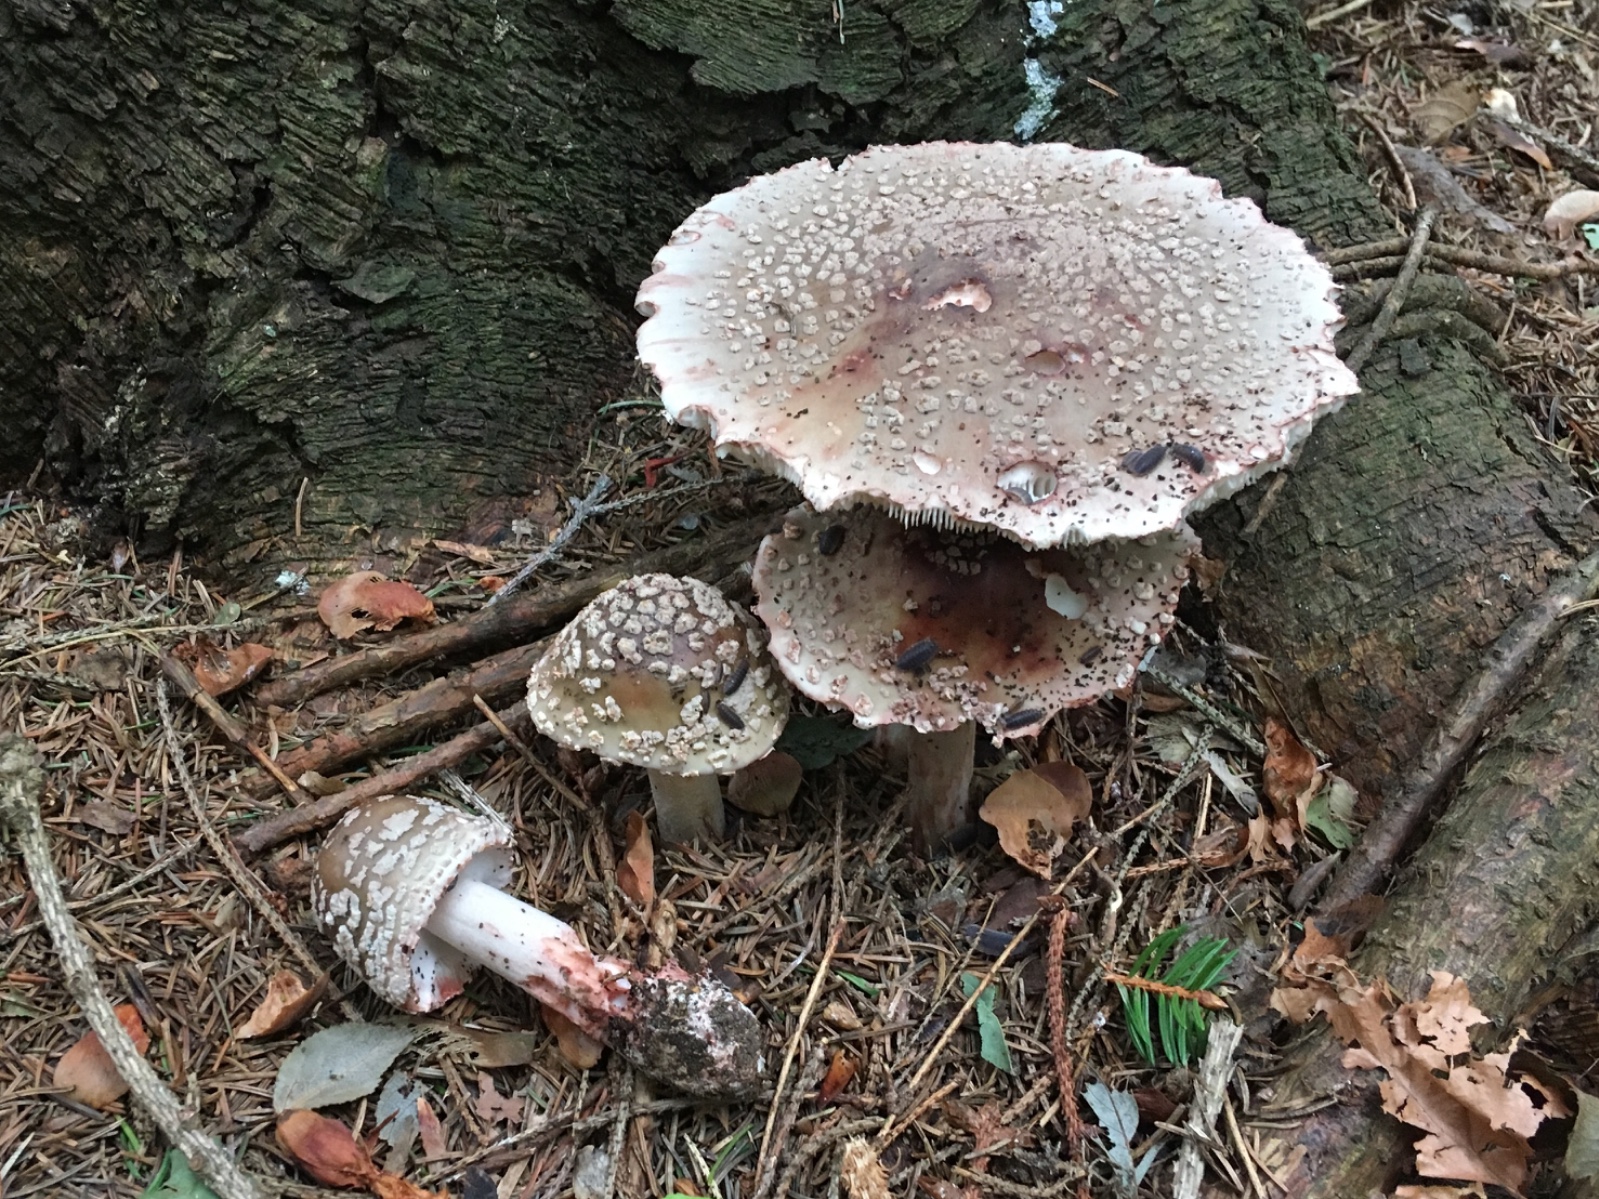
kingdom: Fungi
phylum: Basidiomycota
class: Agaricomycetes
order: Agaricales
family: Amanitaceae
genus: Amanita
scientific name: Amanita rubescens
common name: rødmende fluesvamp
